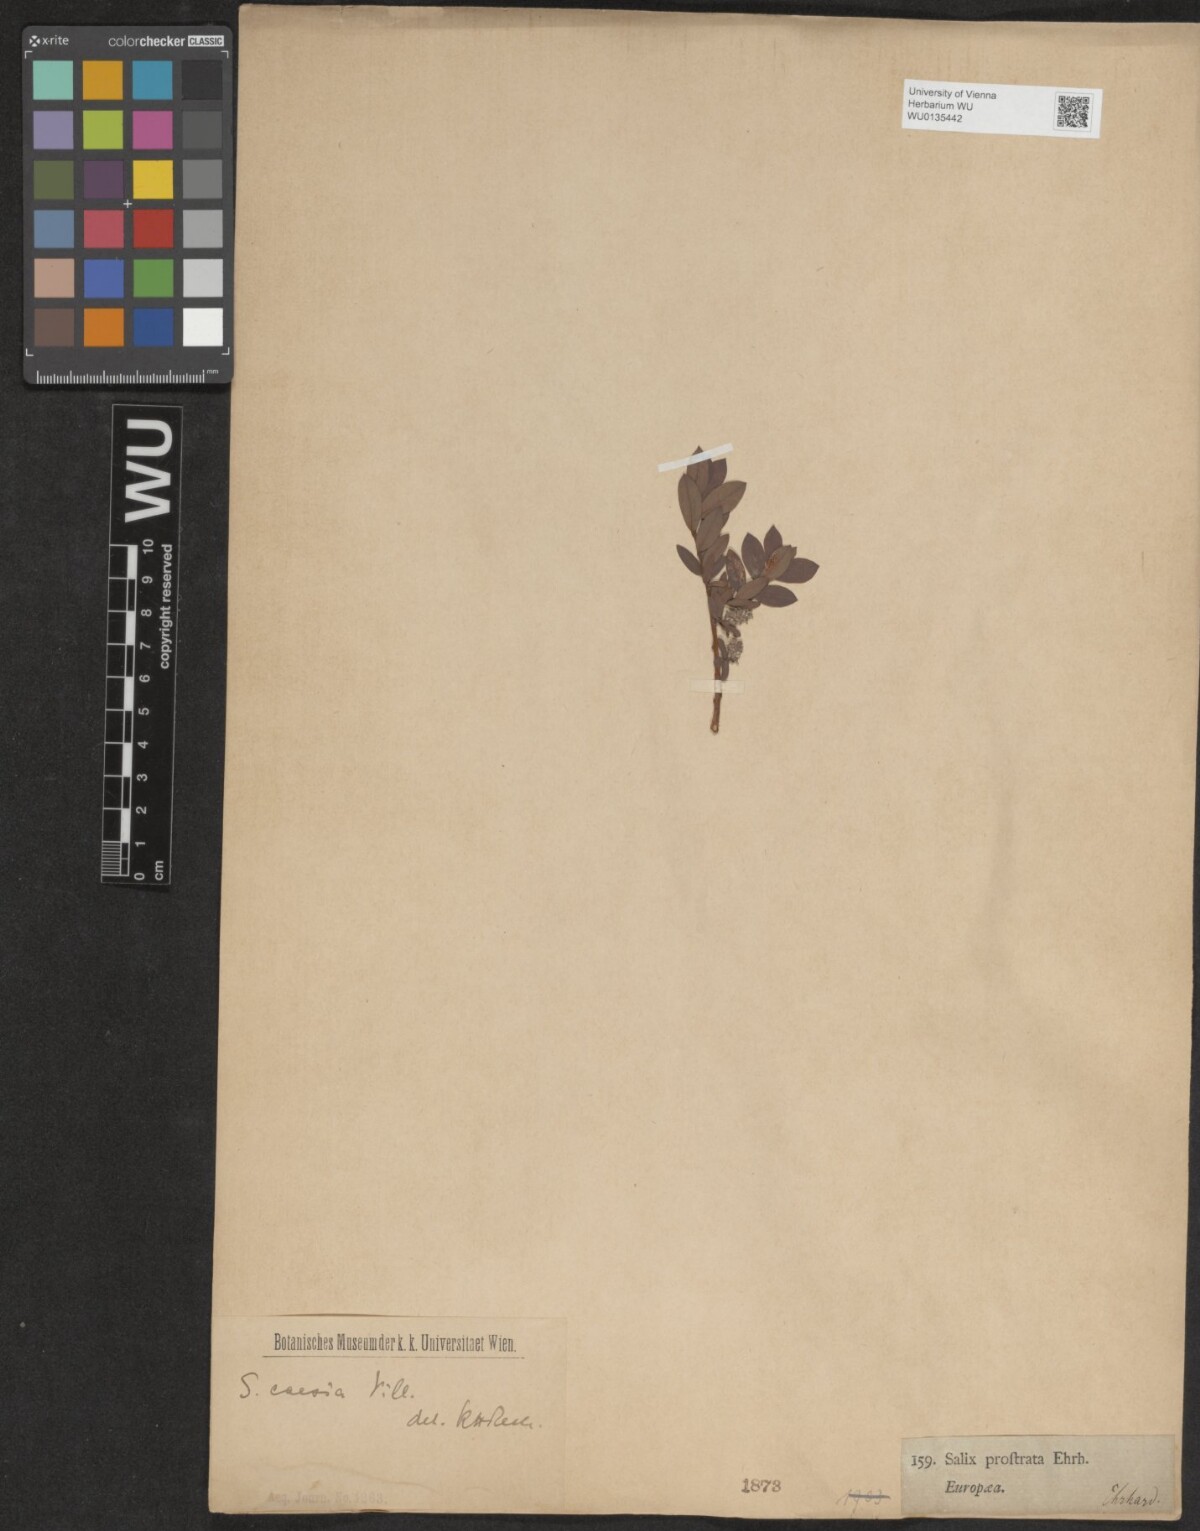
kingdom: Plantae
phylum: Tracheophyta
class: Magnoliopsida
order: Malpighiales
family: Salicaceae
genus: Salix
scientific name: Salix caesia
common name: Blue willow
